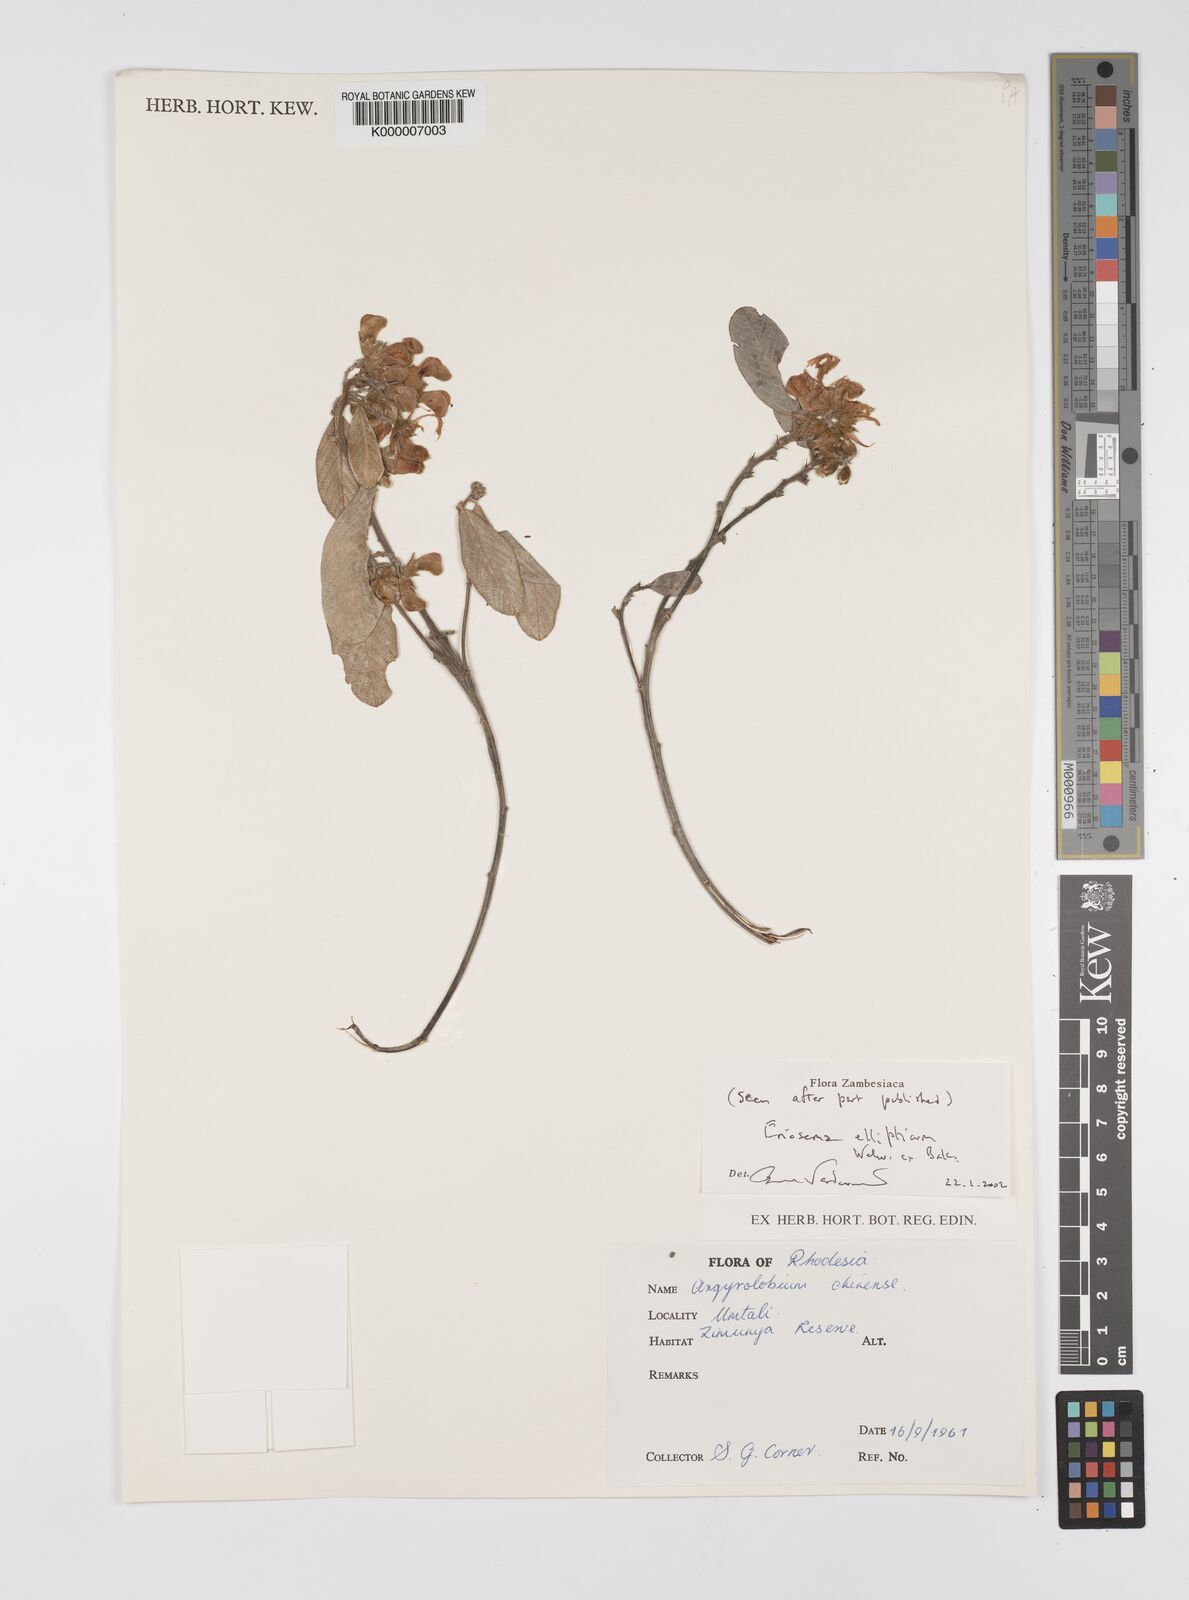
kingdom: Plantae
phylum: Tracheophyta
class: Magnoliopsida
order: Fabales
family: Fabaceae
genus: Eriosema
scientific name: Eriosema ellipticum
